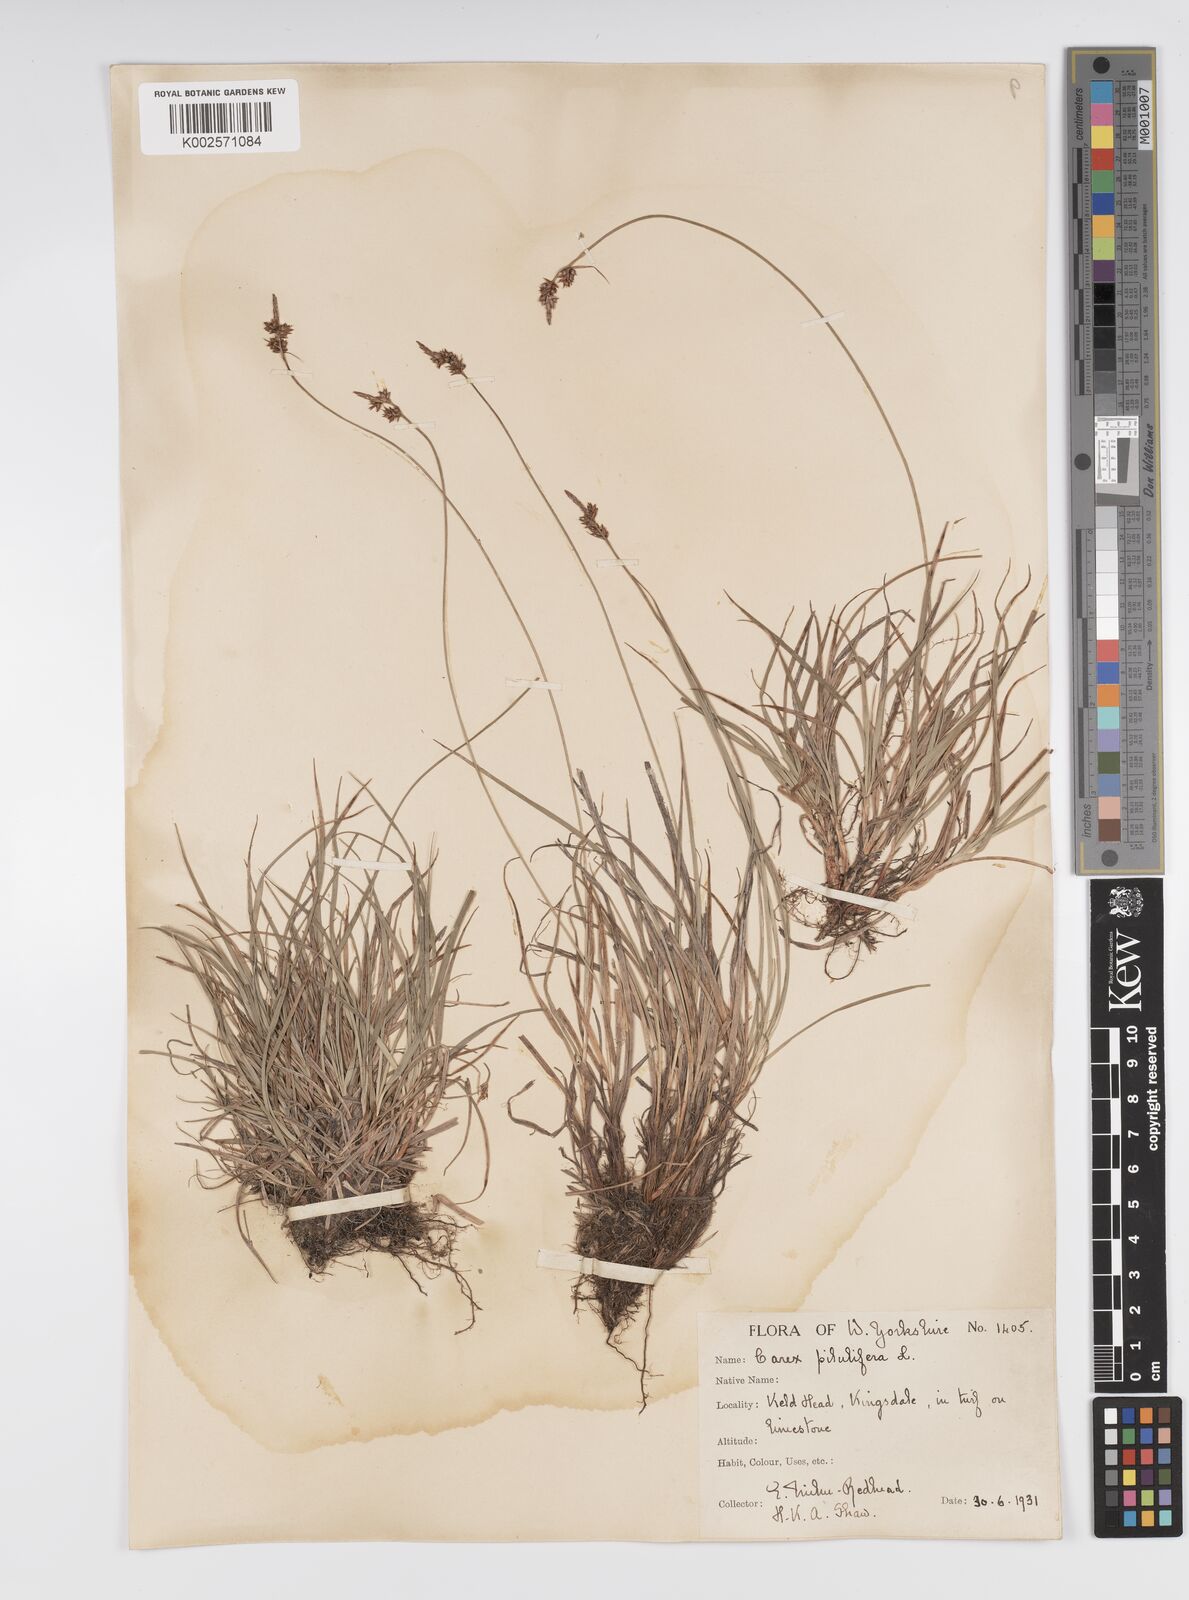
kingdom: Plantae
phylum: Tracheophyta
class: Liliopsida
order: Poales
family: Cyperaceae
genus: Carex
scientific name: Carex pilulifera
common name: Pill sedge
